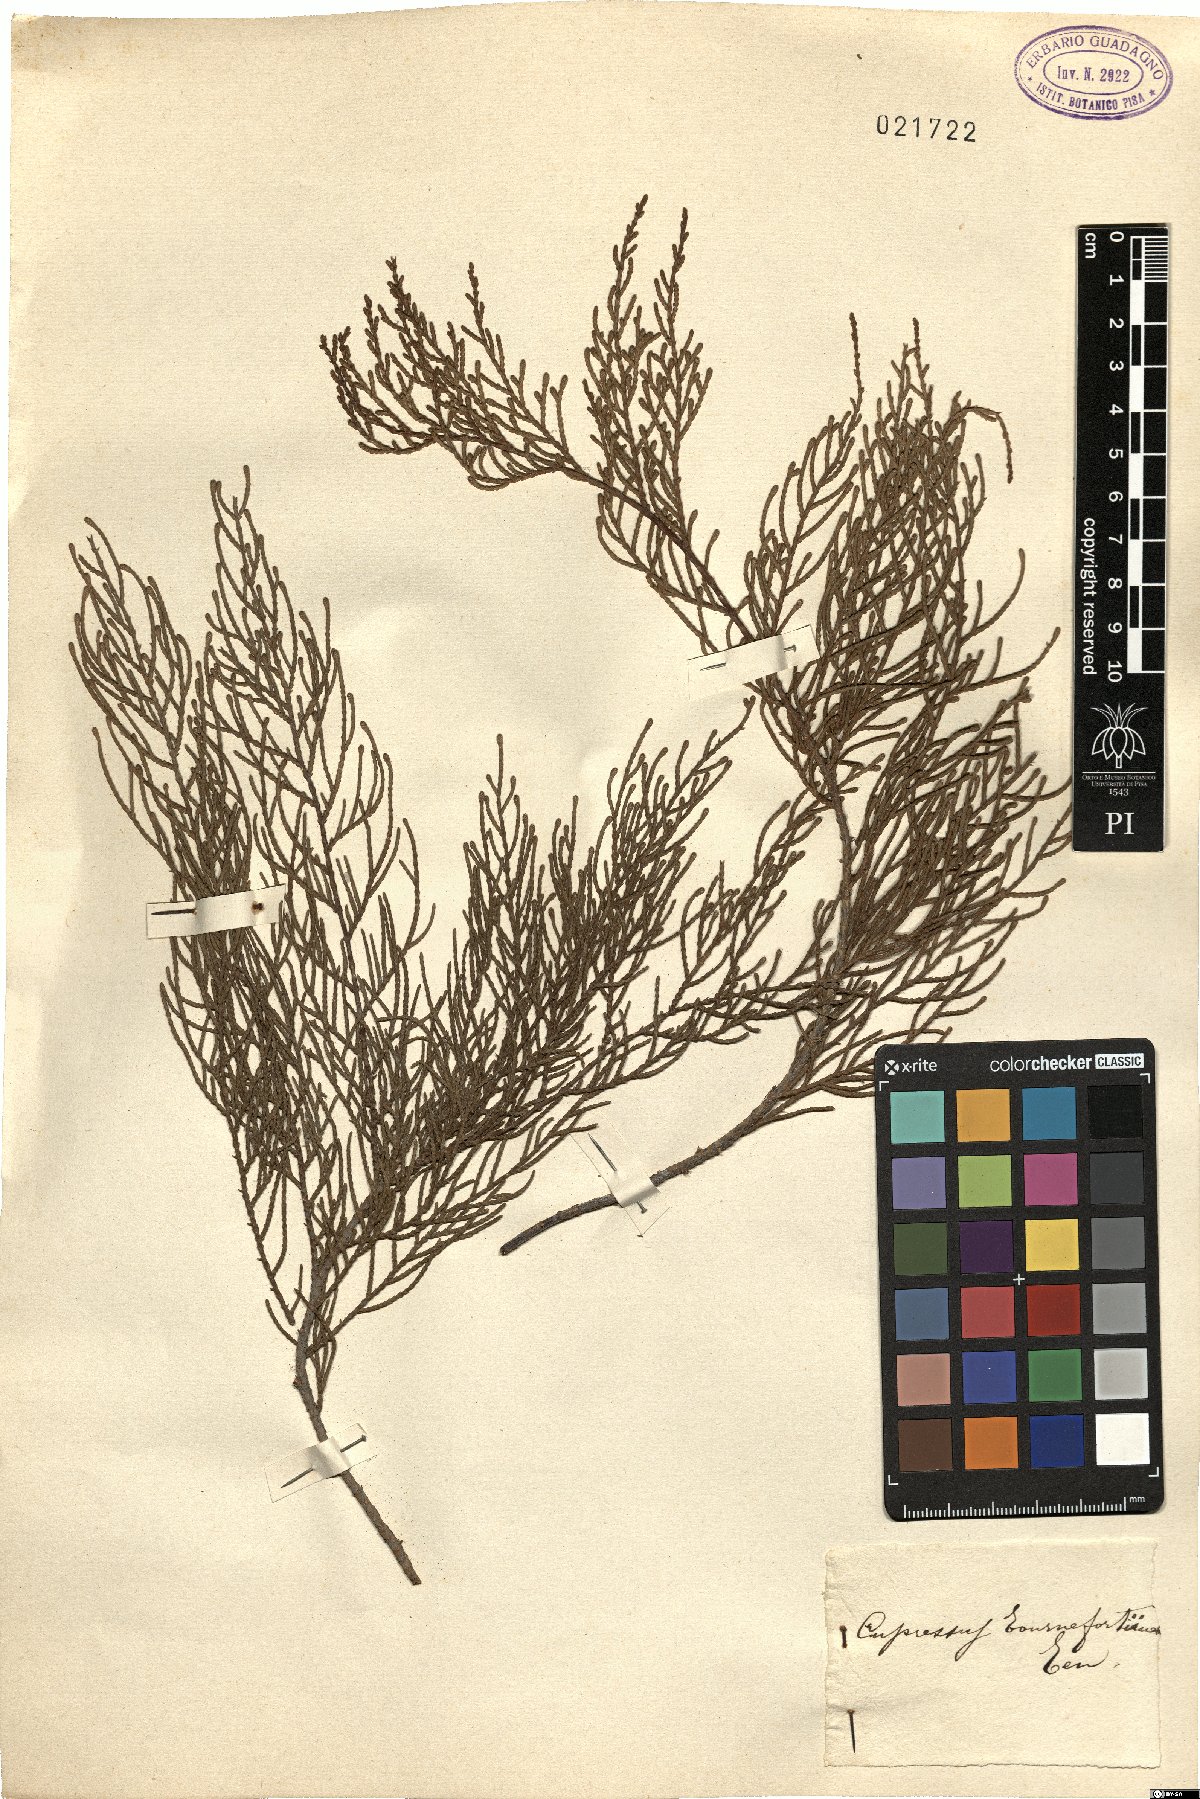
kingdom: Plantae
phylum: Tracheophyta
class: Pinopsida
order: Pinales
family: Cupressaceae
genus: Cupressus
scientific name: Cupressus
